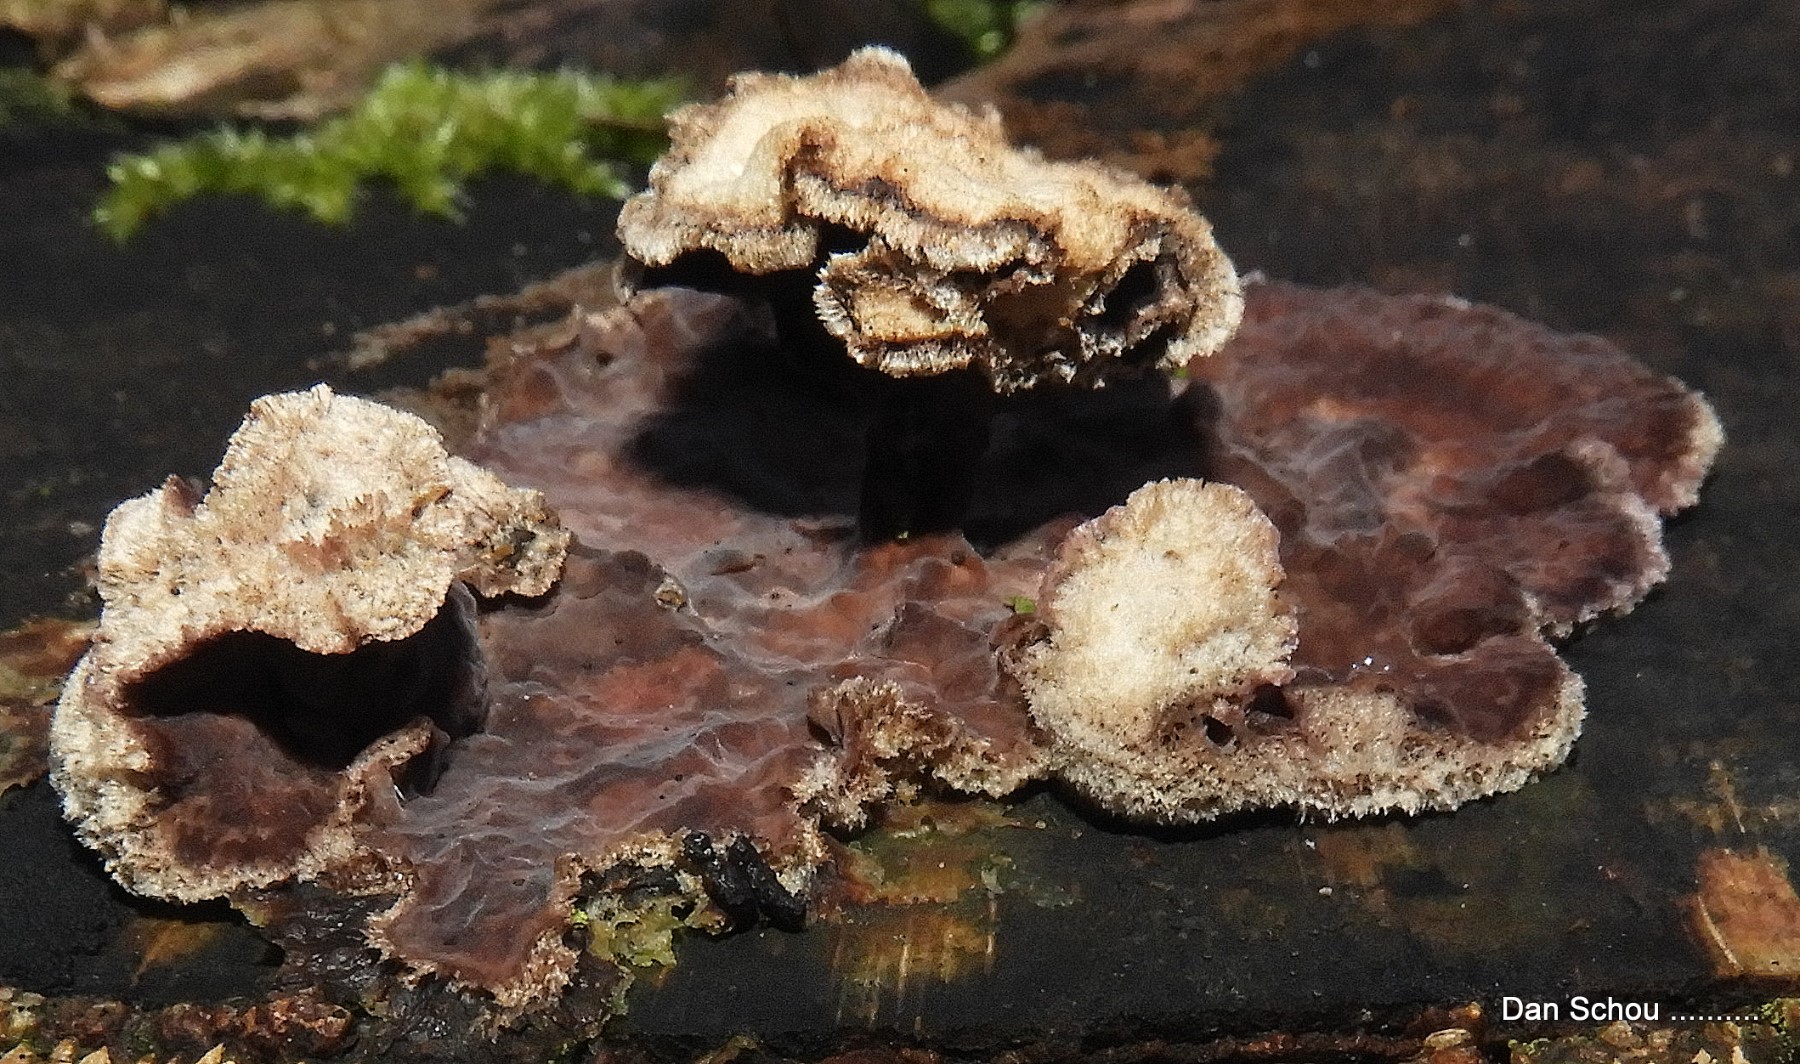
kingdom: Fungi
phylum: Basidiomycota
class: Agaricomycetes
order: Agaricales
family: Cyphellaceae
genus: Chondrostereum
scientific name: Chondrostereum purpureum
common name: purpurlædersvamp
